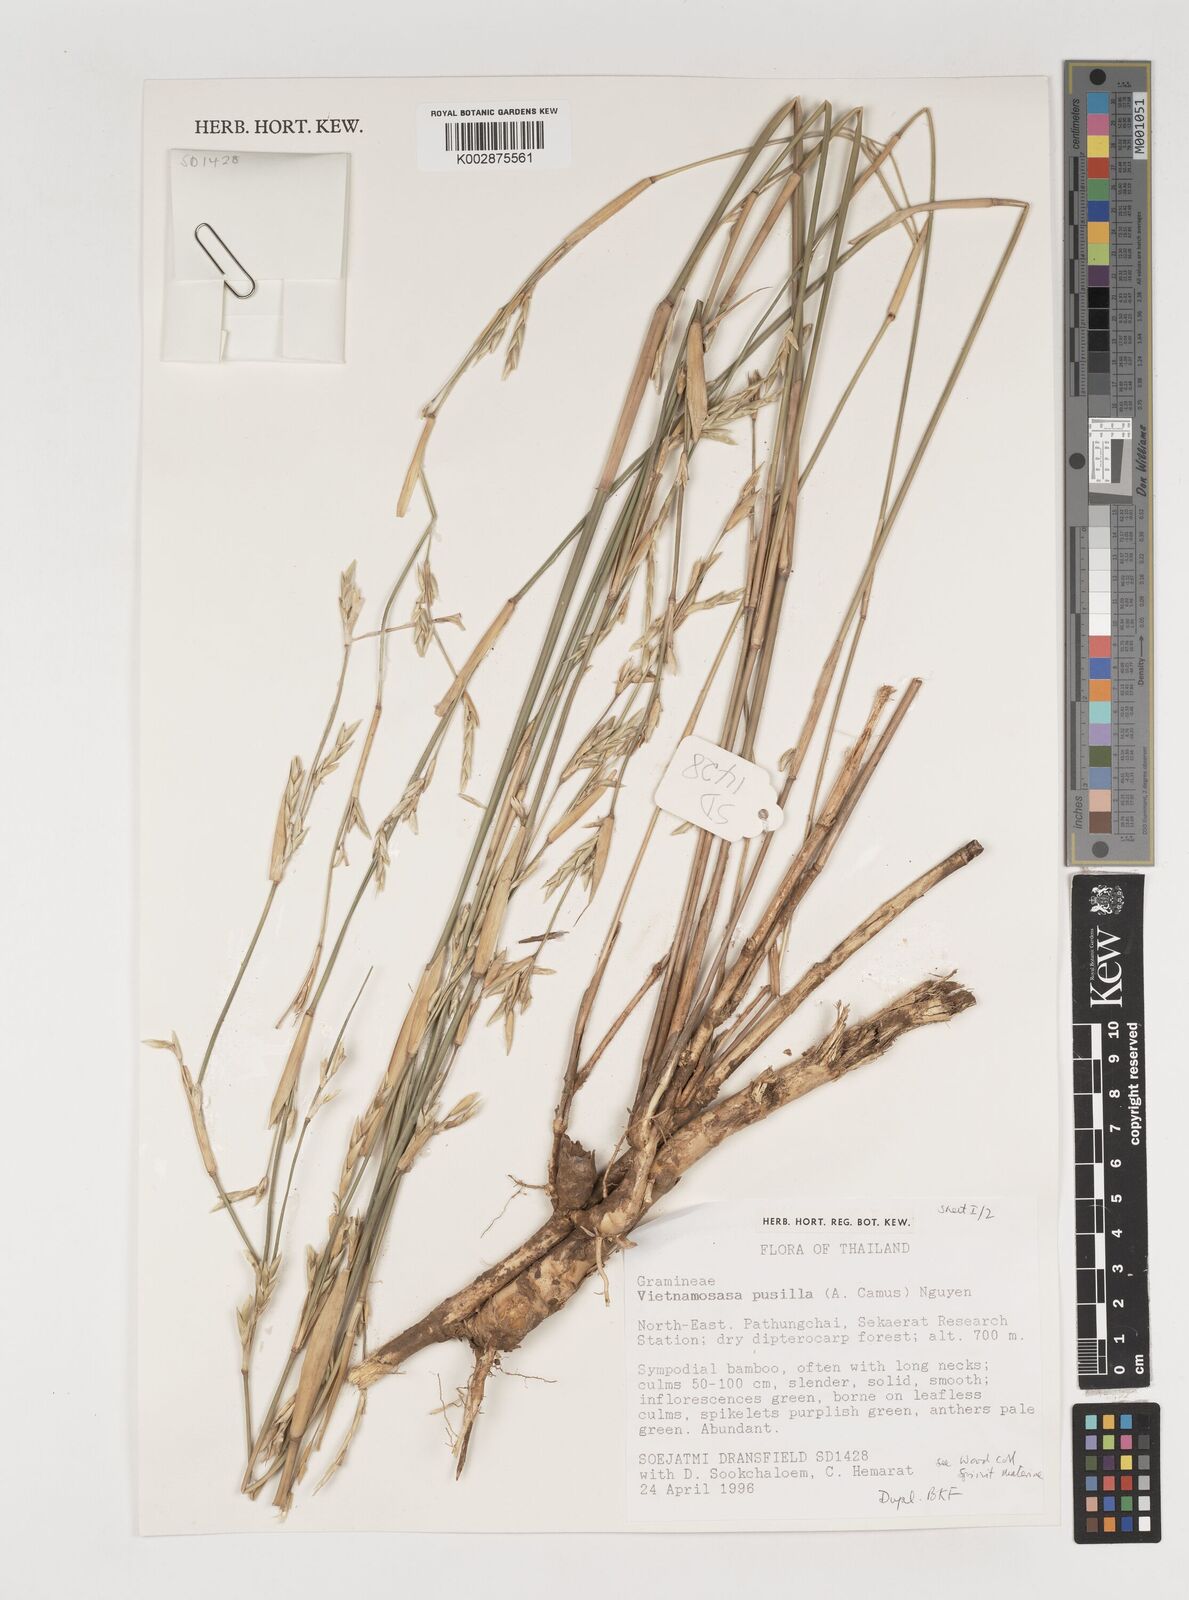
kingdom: Plantae
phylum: Tracheophyta
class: Liliopsida
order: Poales
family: Poaceae
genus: Vietnamosasa
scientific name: Vietnamosasa pusilla
